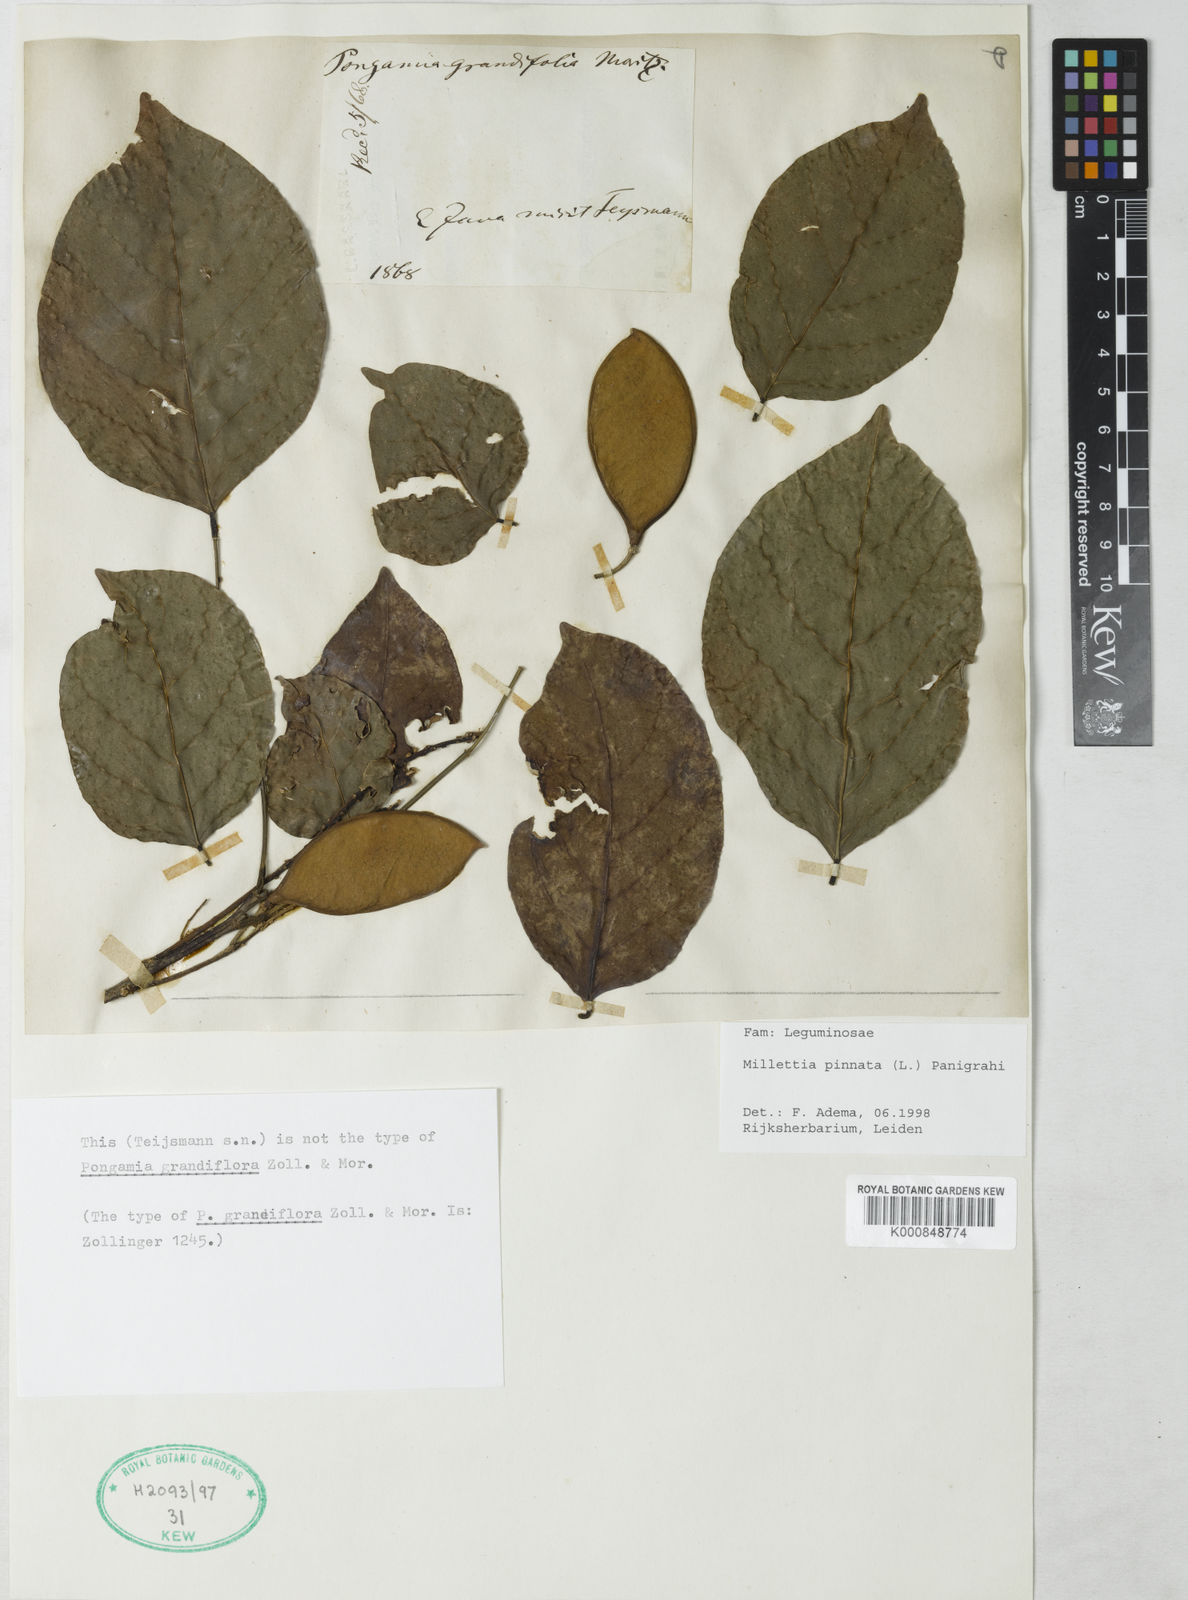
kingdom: Plantae
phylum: Tracheophyta
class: Magnoliopsida
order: Fabales
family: Fabaceae
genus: Pongamia
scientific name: Pongamia pinnata
